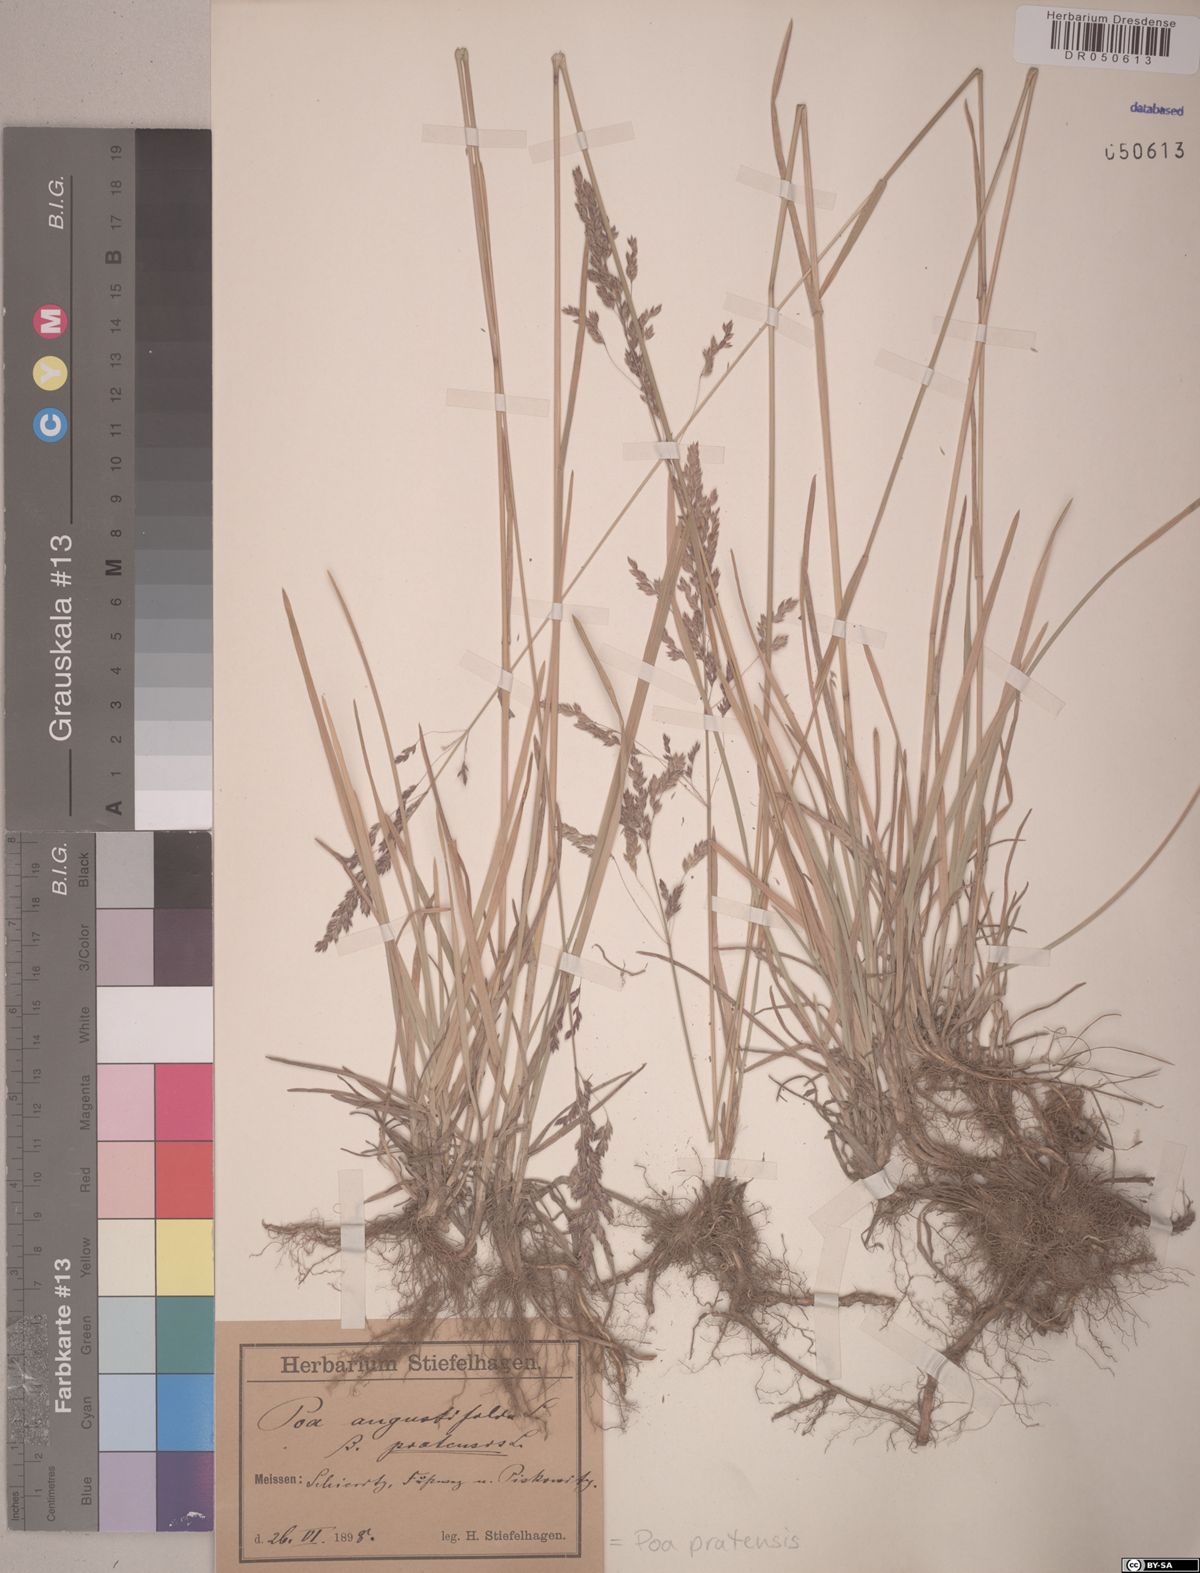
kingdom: Plantae
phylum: Tracheophyta
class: Liliopsida
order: Poales
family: Poaceae
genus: Poa
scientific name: Poa pratensis
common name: Kentucky bluegrass
